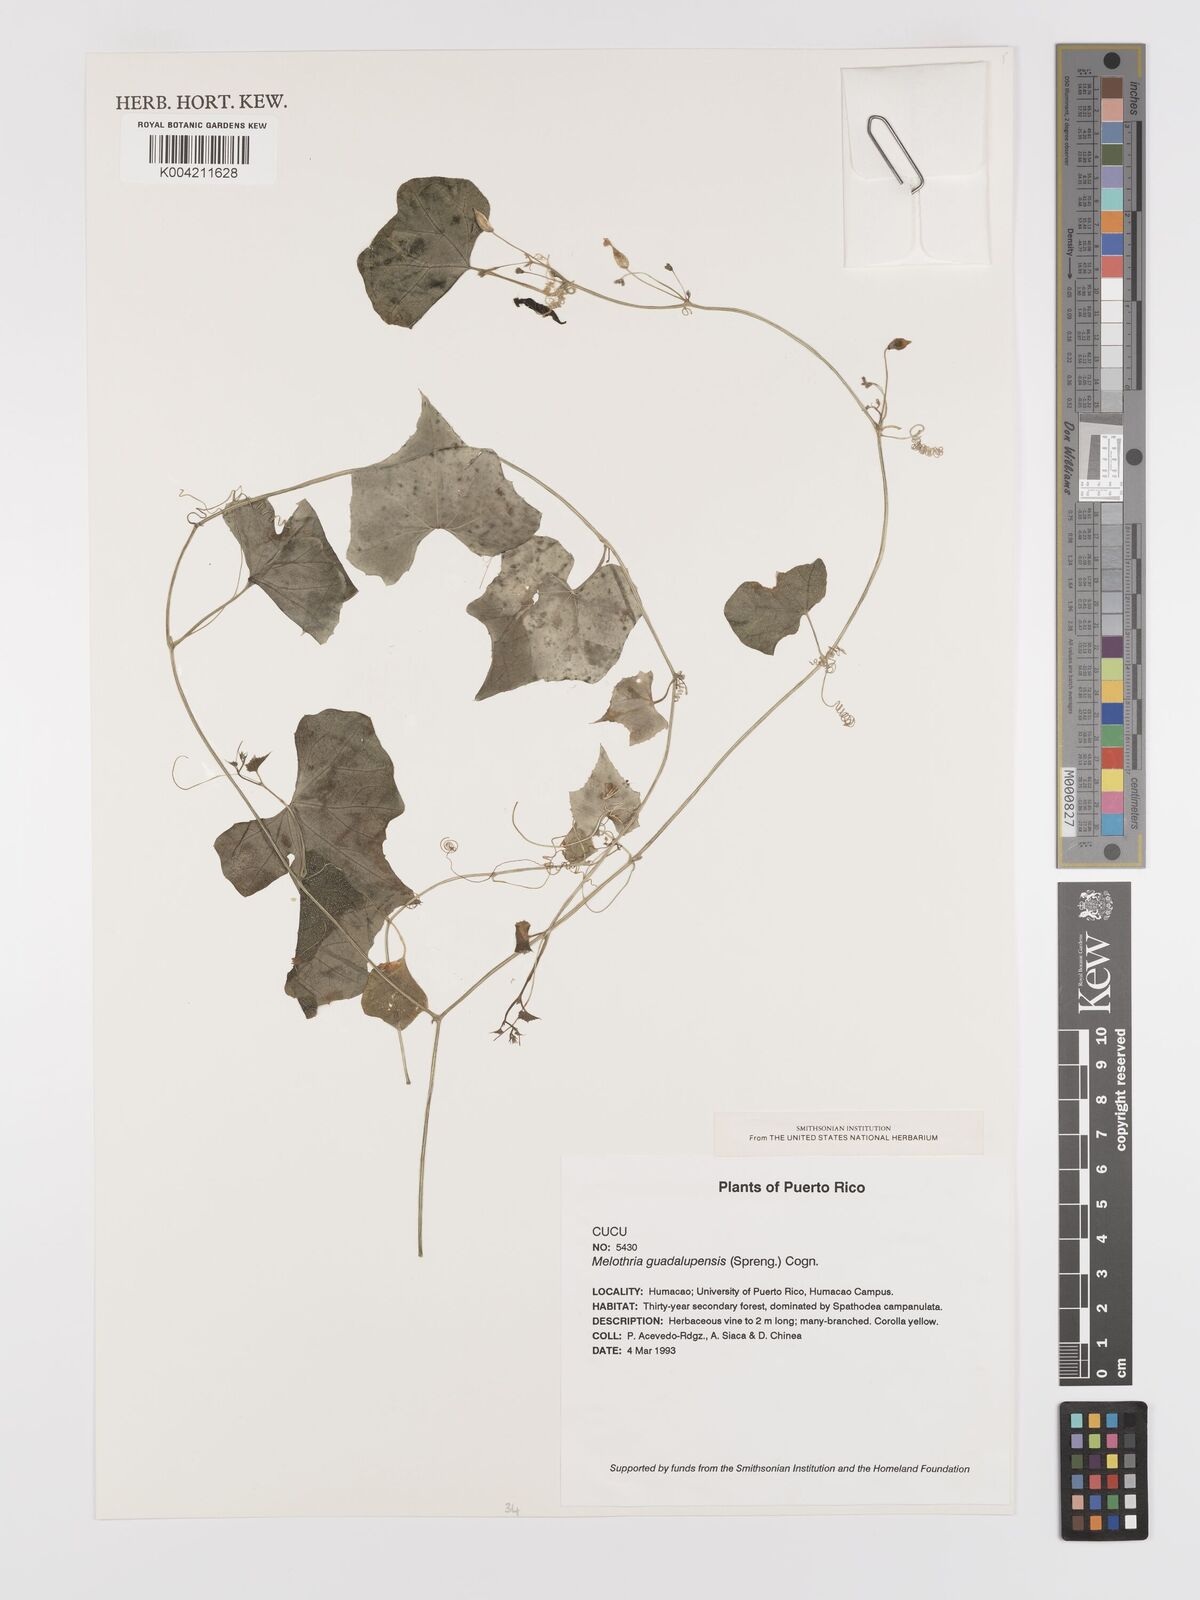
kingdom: Plantae
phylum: Tracheophyta
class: Magnoliopsida
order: Cucurbitales
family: Cucurbitaceae
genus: Melothria
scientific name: Melothria pendula
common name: Creeping-cucumber
